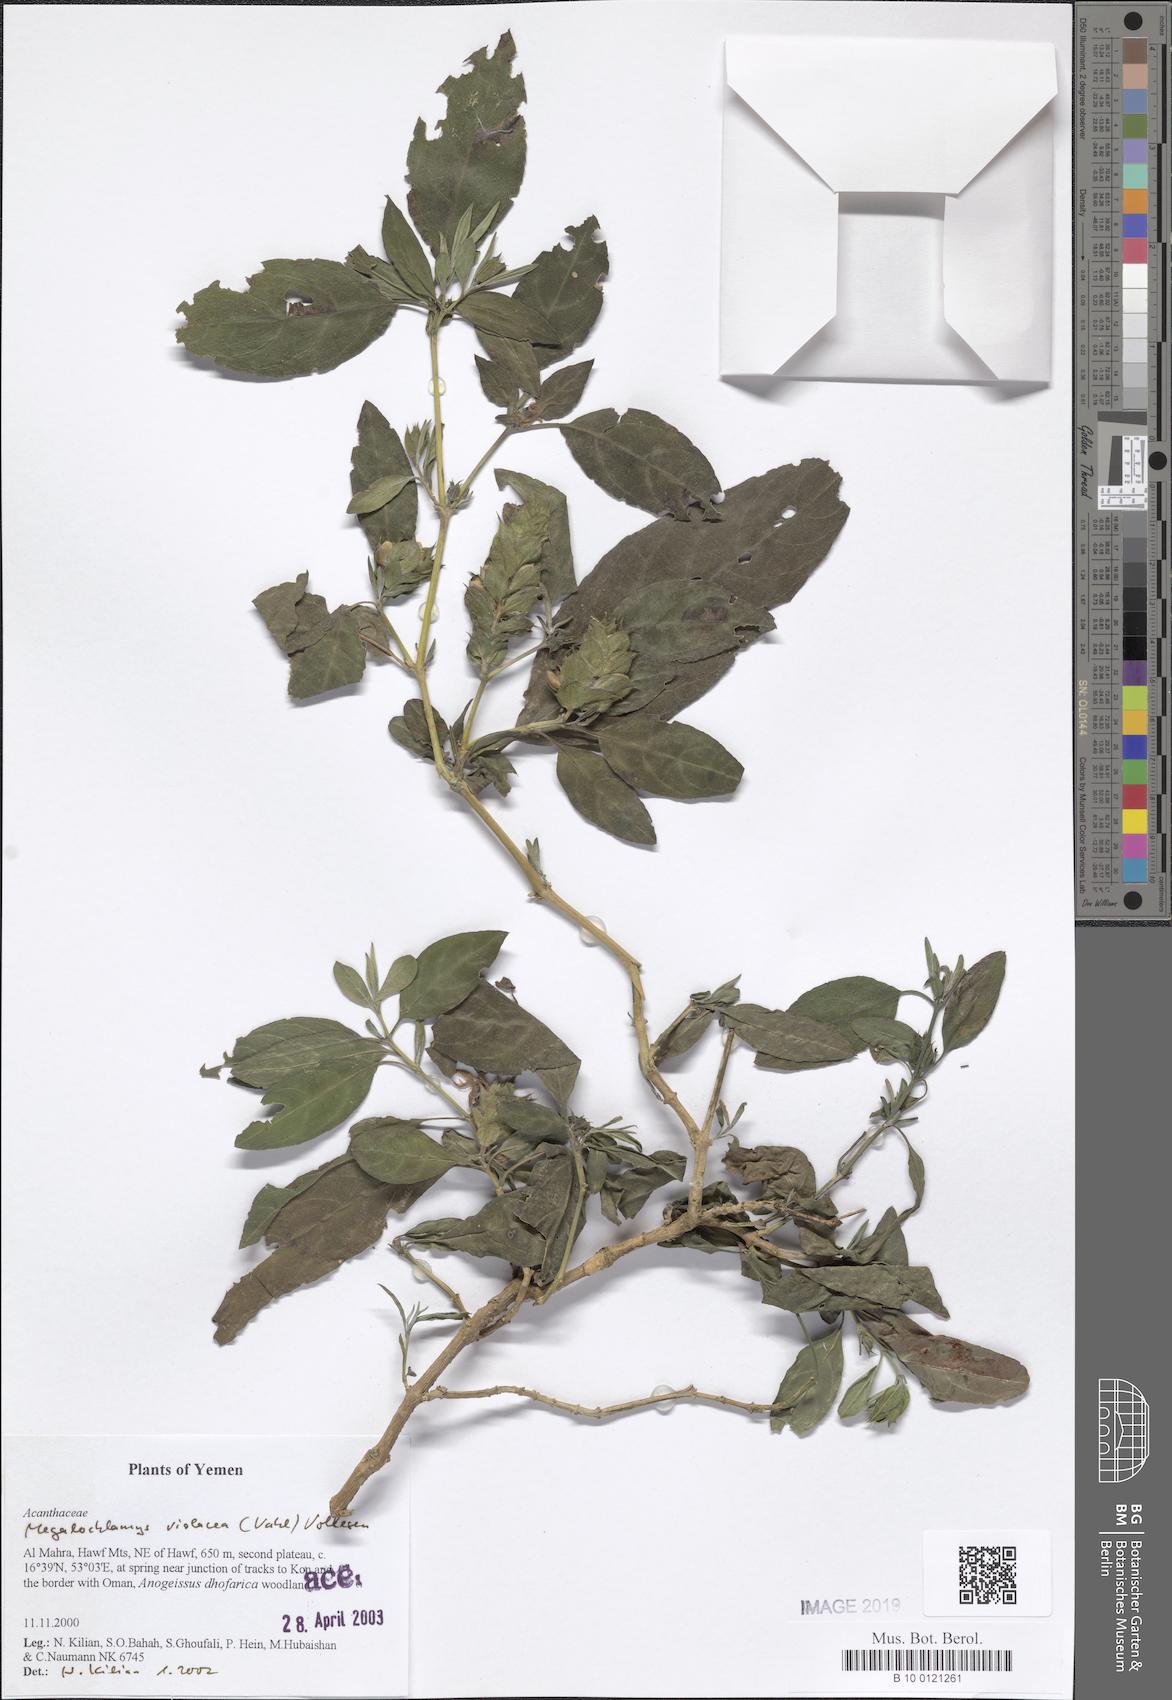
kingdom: Plantae
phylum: Tracheophyta
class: Magnoliopsida
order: Lamiales
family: Acanthaceae
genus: Megalochlamys
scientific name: Megalochlamys violacea
